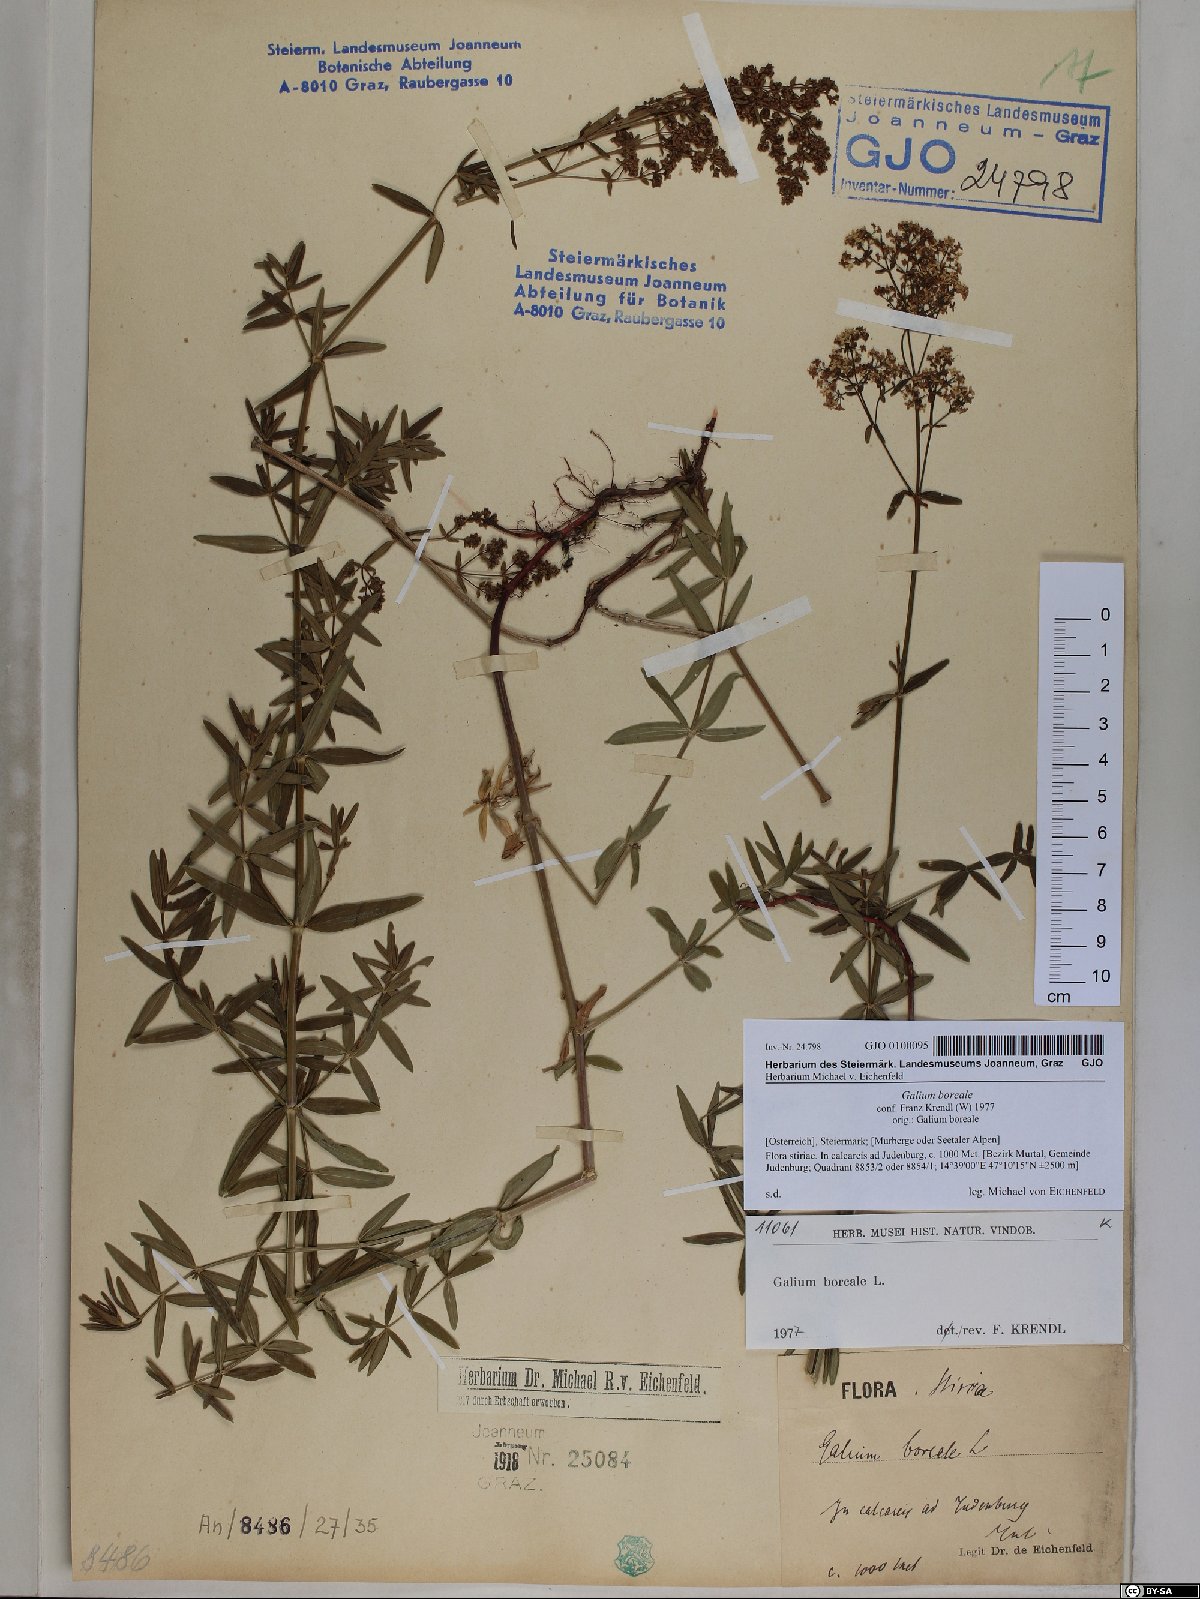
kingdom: Plantae
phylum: Tracheophyta
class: Magnoliopsida
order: Gentianales
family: Rubiaceae
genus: Galium
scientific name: Galium boreale
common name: Northern bedstraw
